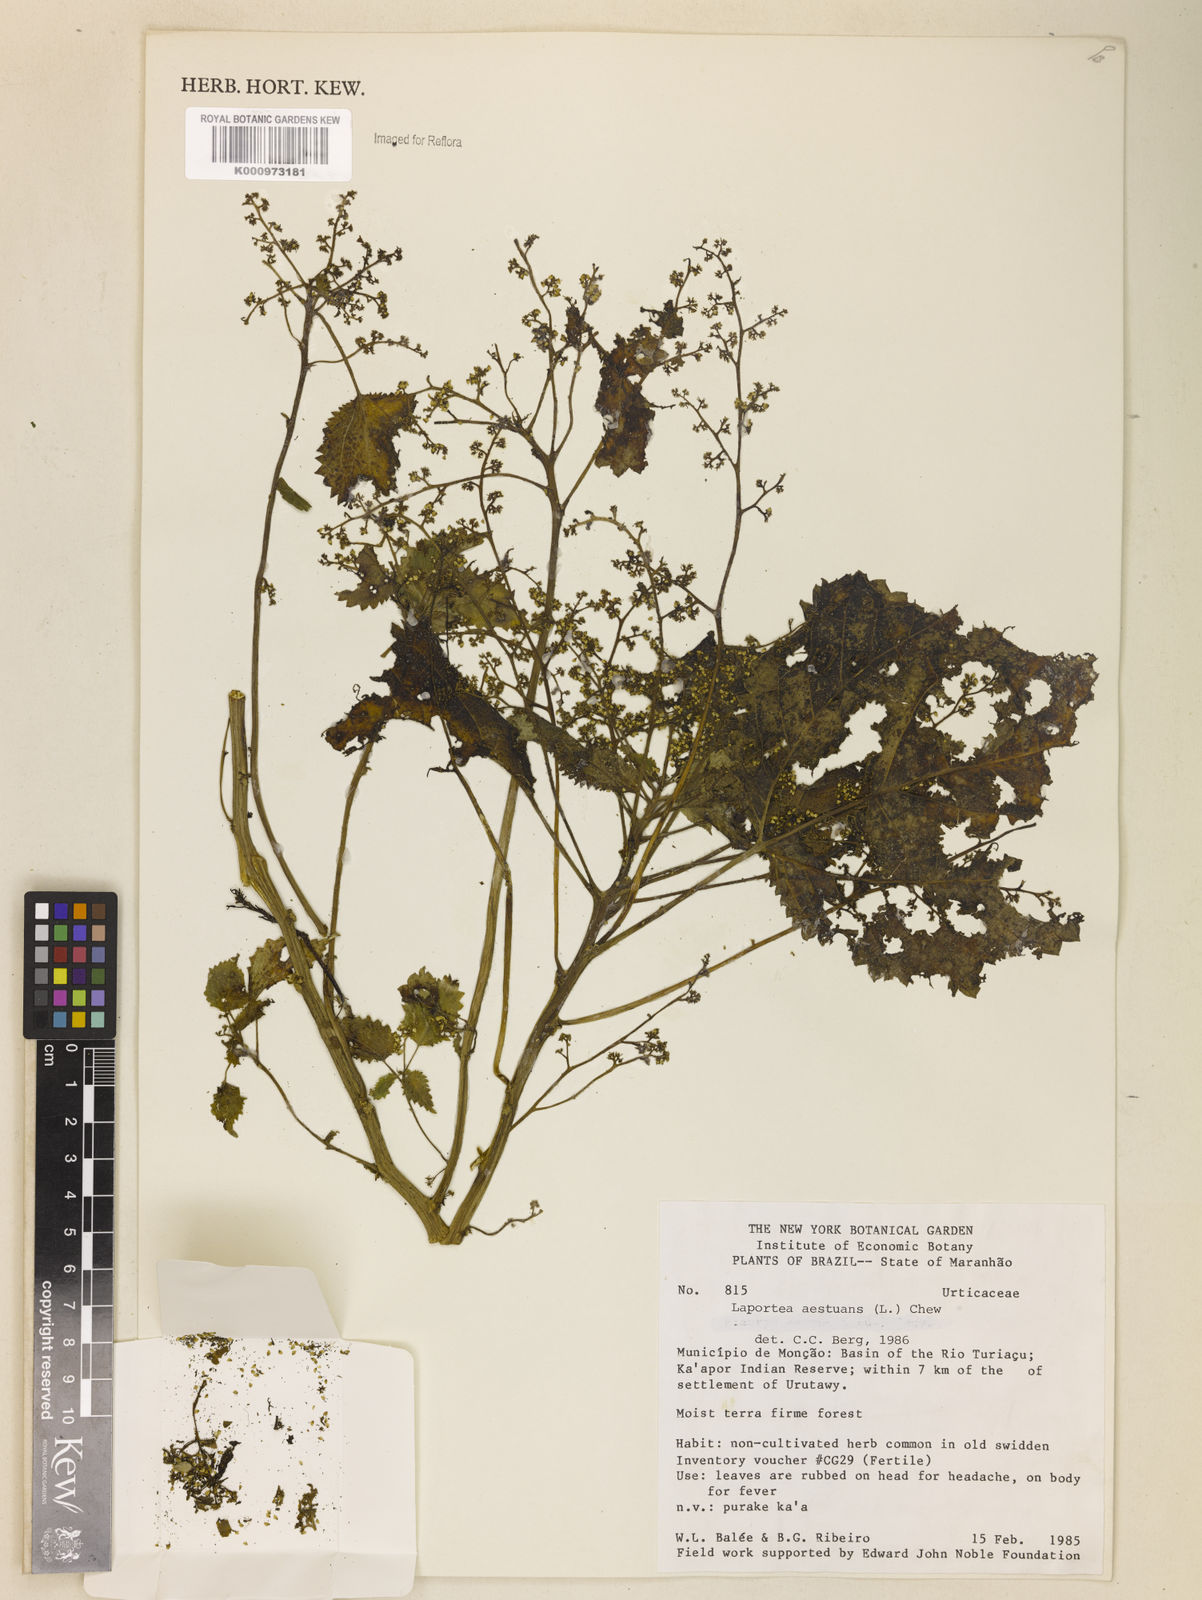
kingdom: Plantae
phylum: Tracheophyta
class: Magnoliopsida
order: Rosales
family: Urticaceae
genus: Laportea
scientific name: Laportea aestuans
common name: West indian woodnettle
